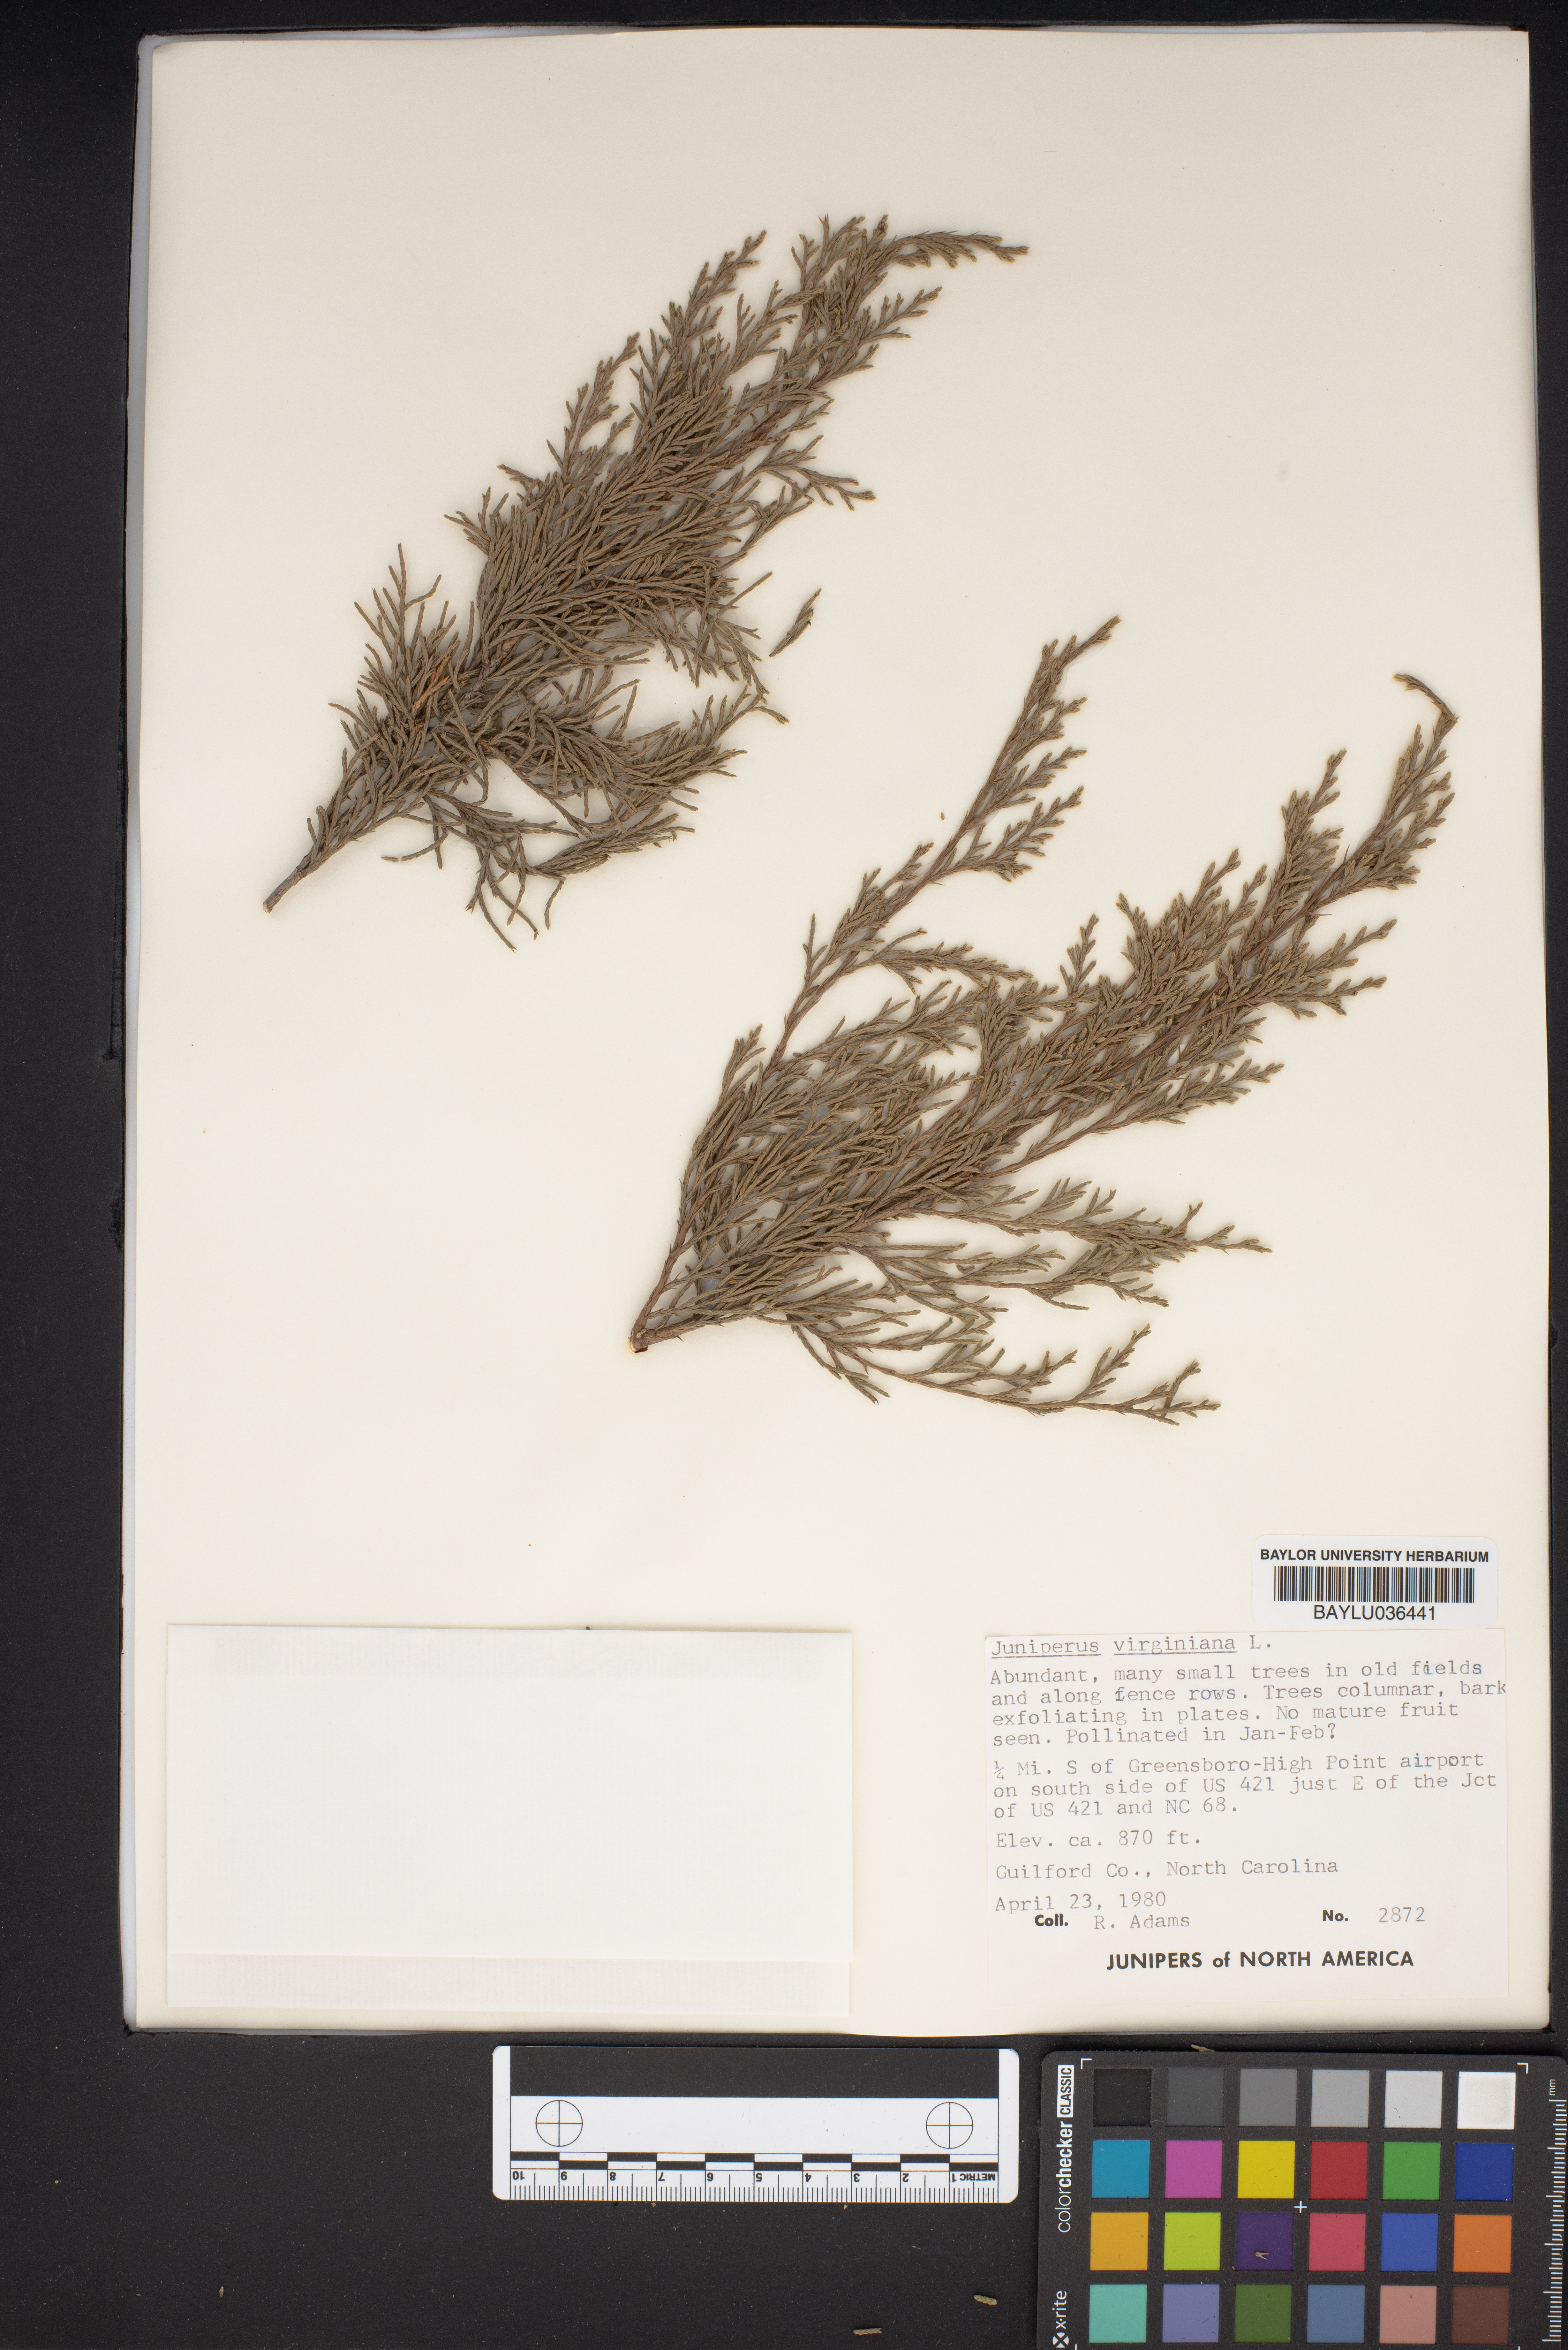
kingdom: Plantae
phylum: Tracheophyta
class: Pinopsida
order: Pinales
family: Cupressaceae
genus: Juniperus
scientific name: Juniperus virginiana
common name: Red juniper
